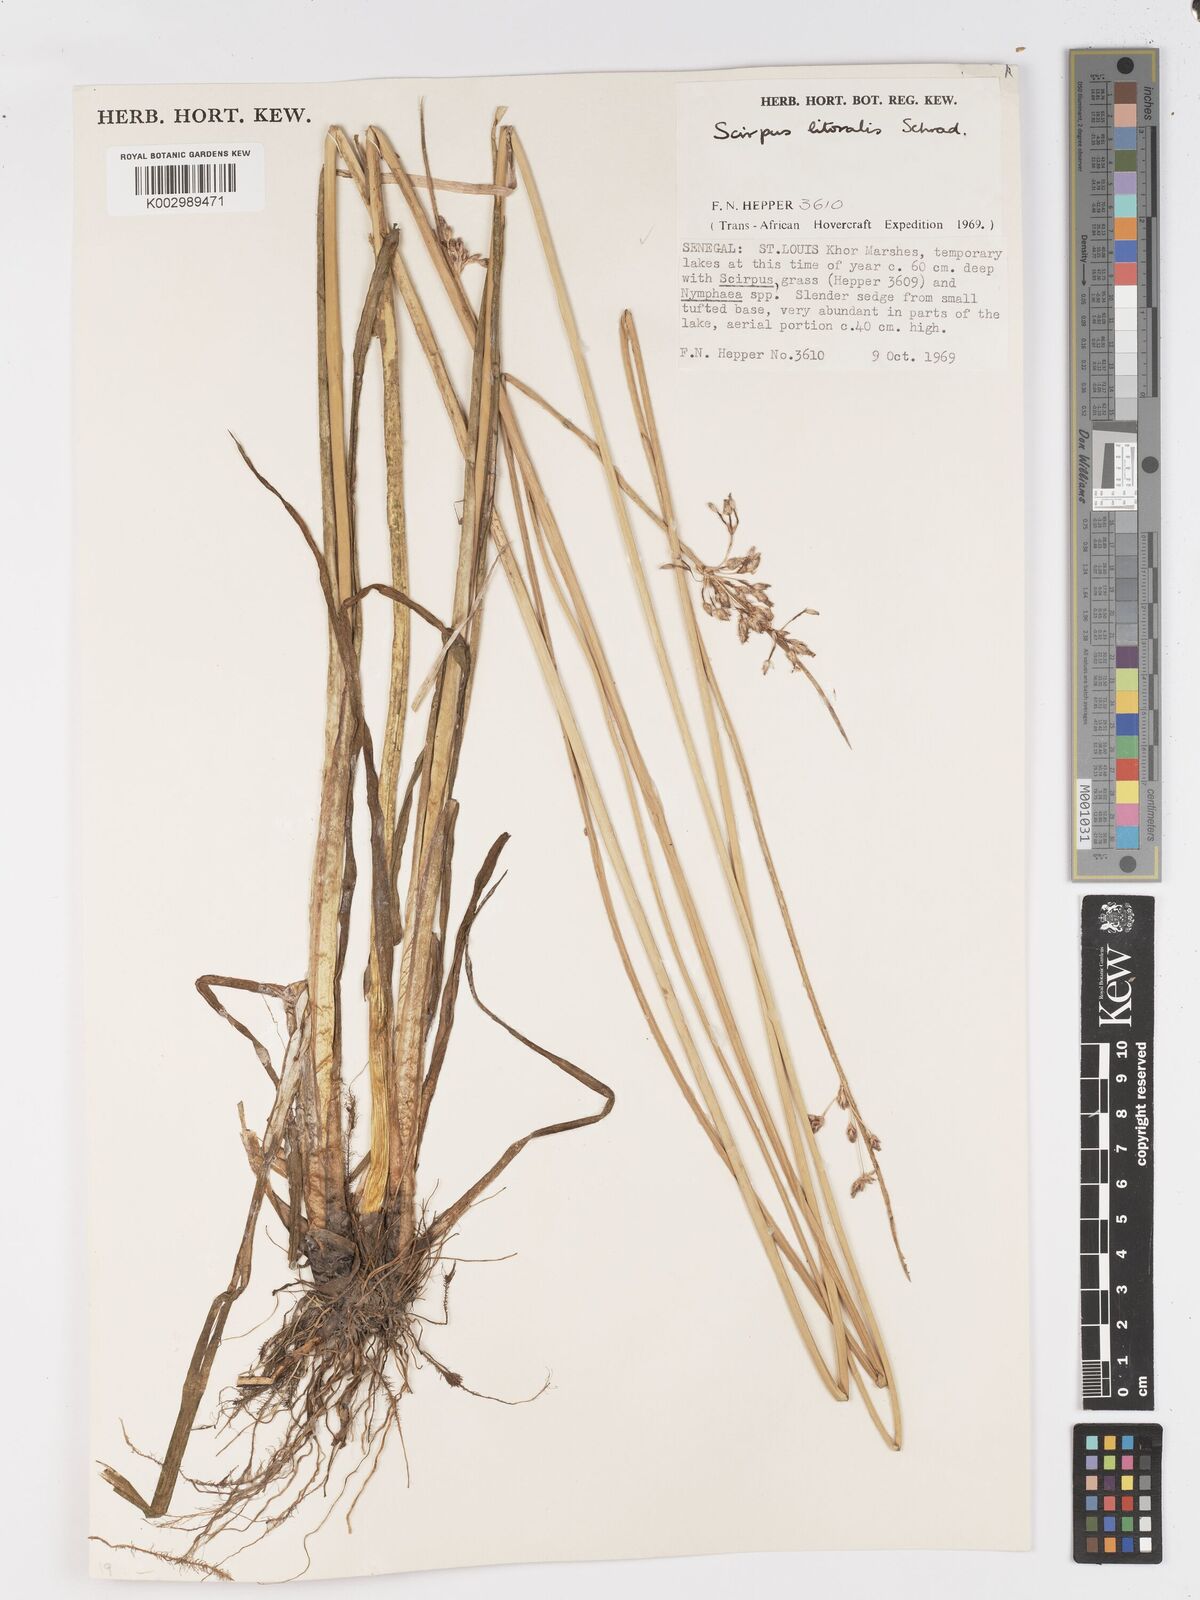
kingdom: Plantae
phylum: Tracheophyta
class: Liliopsida
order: Poales
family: Cyperaceae
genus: Schoenoplectus
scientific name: Schoenoplectus litoralis
